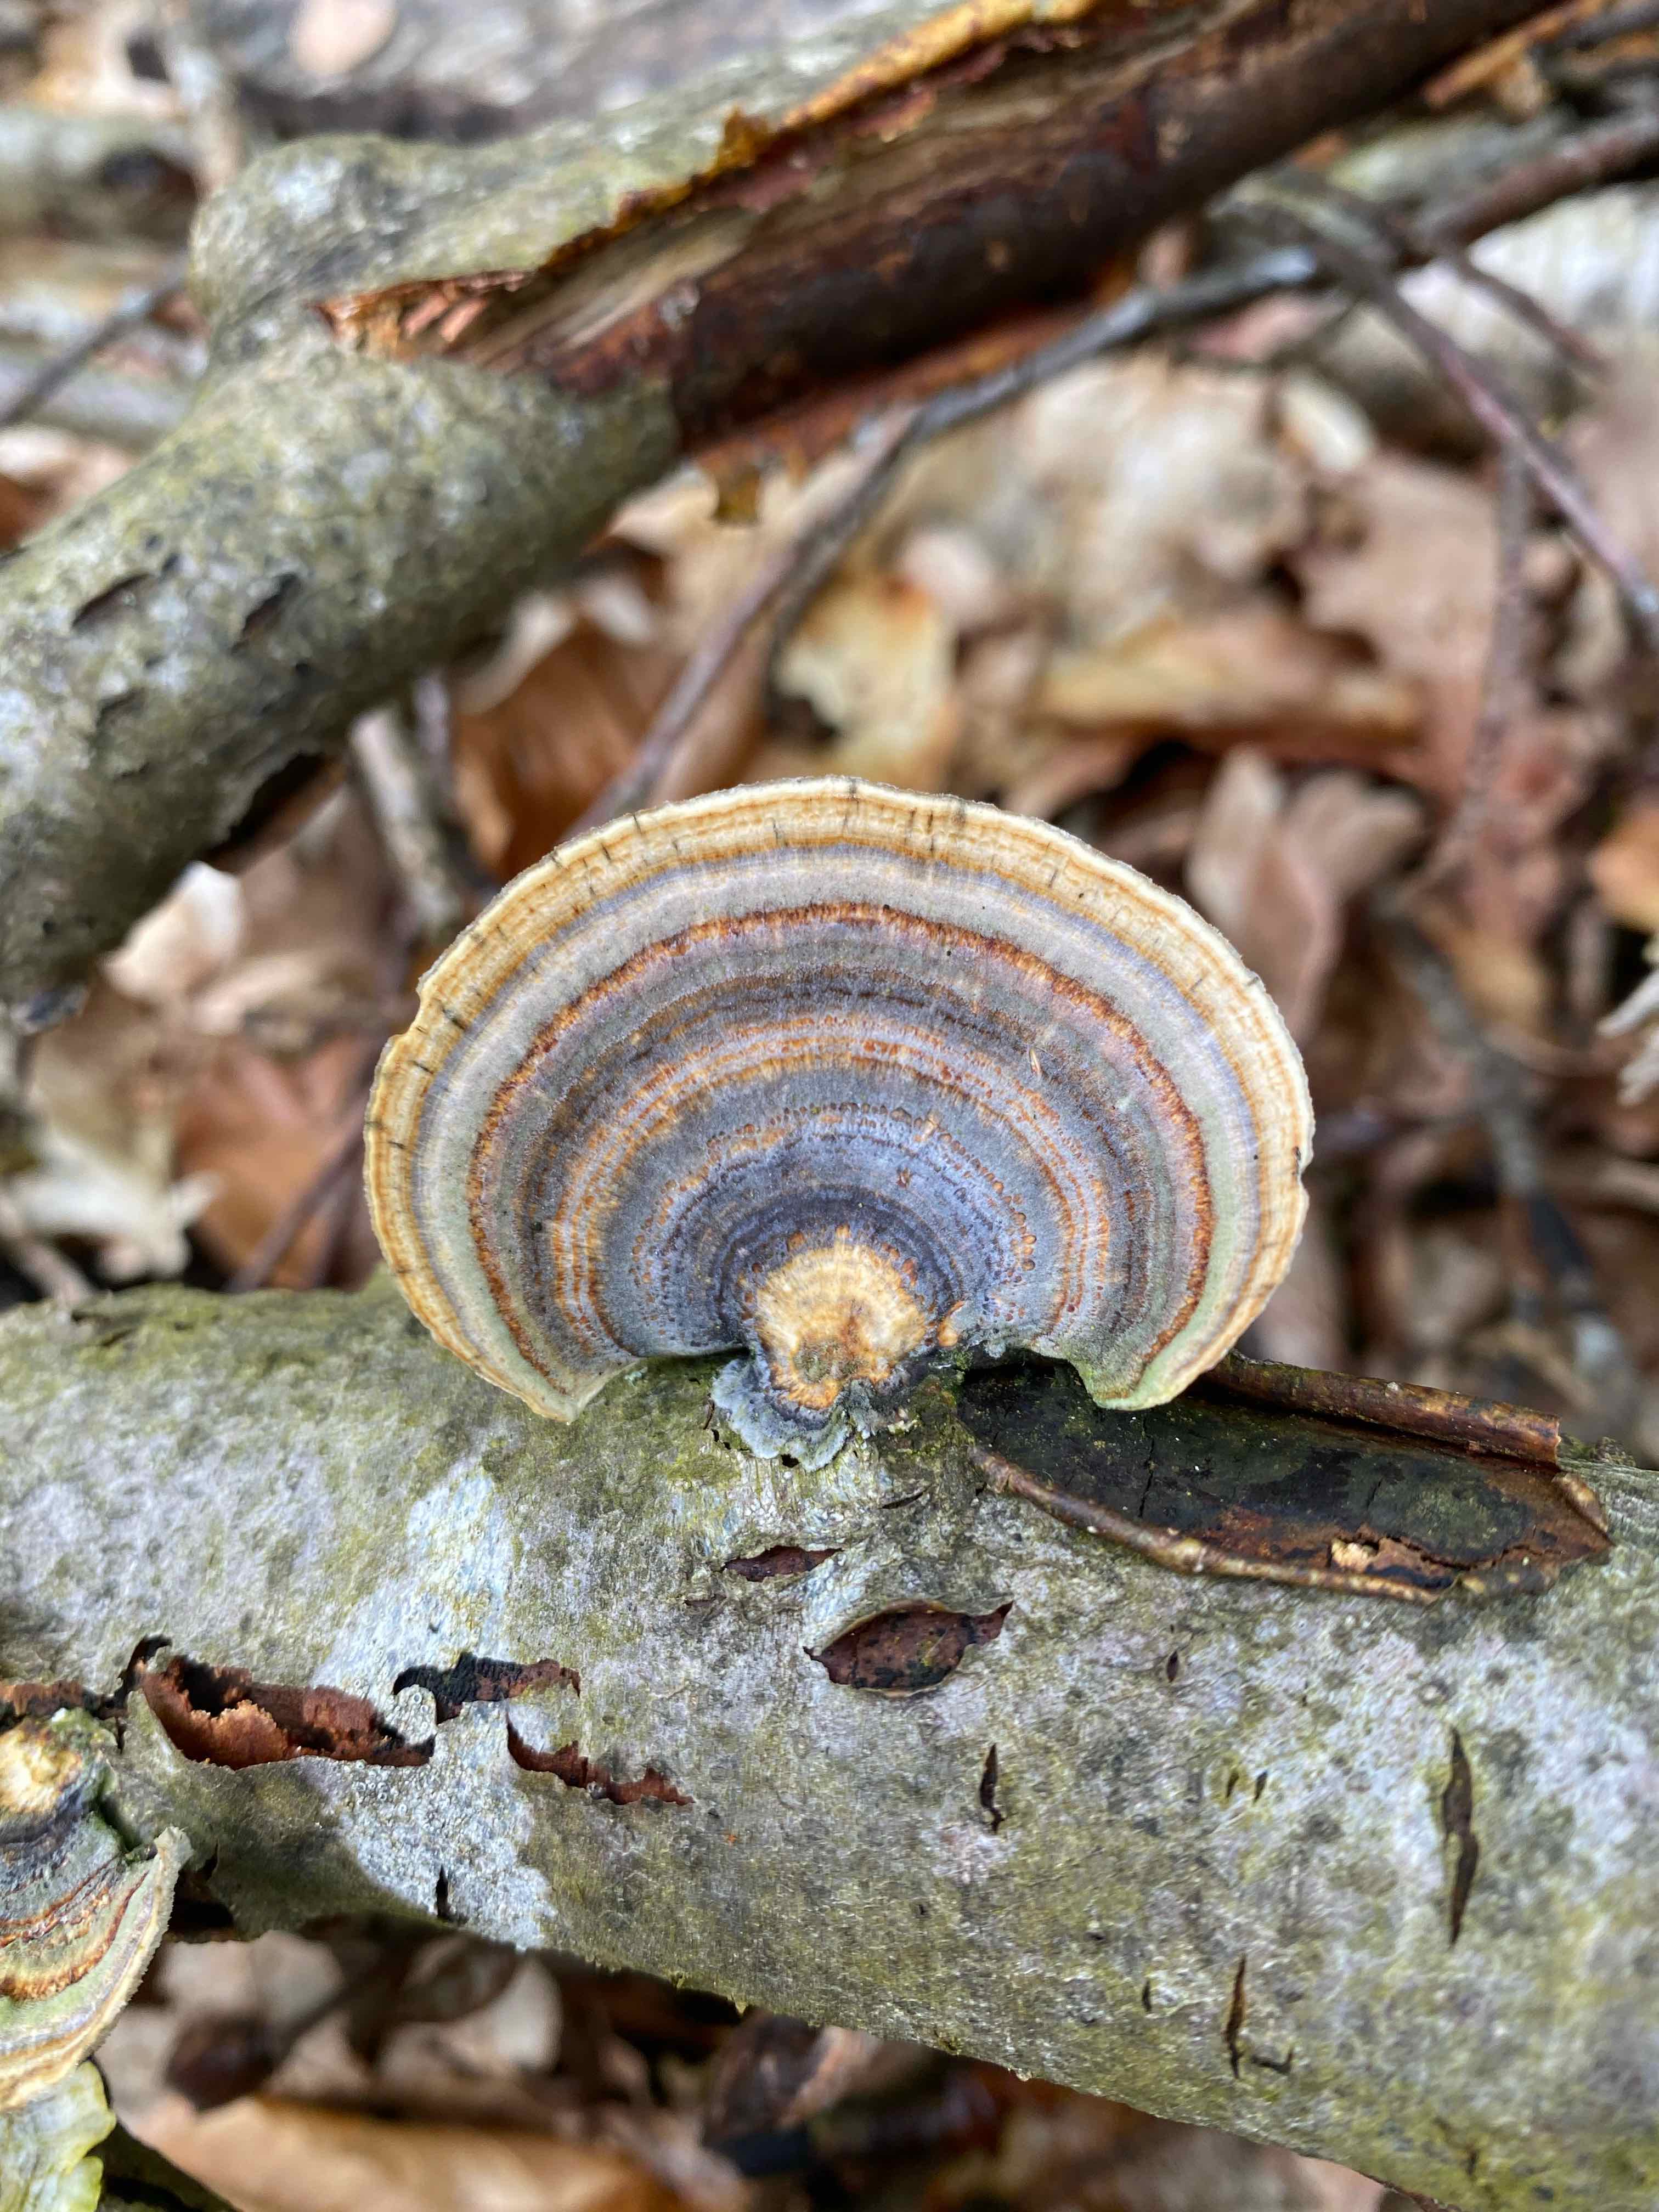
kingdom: Fungi
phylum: Basidiomycota
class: Agaricomycetes
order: Polyporales
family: Polyporaceae
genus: Trametes
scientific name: Trametes versicolor
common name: broget læderporesvamp
